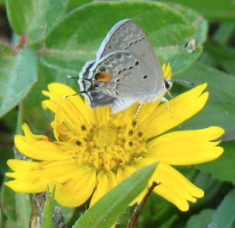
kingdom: Animalia
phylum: Arthropoda
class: Insecta
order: Lepidoptera
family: Lycaenidae
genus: Callicista
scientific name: Callicista columella
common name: Mallow Scrub-Hairstreak
